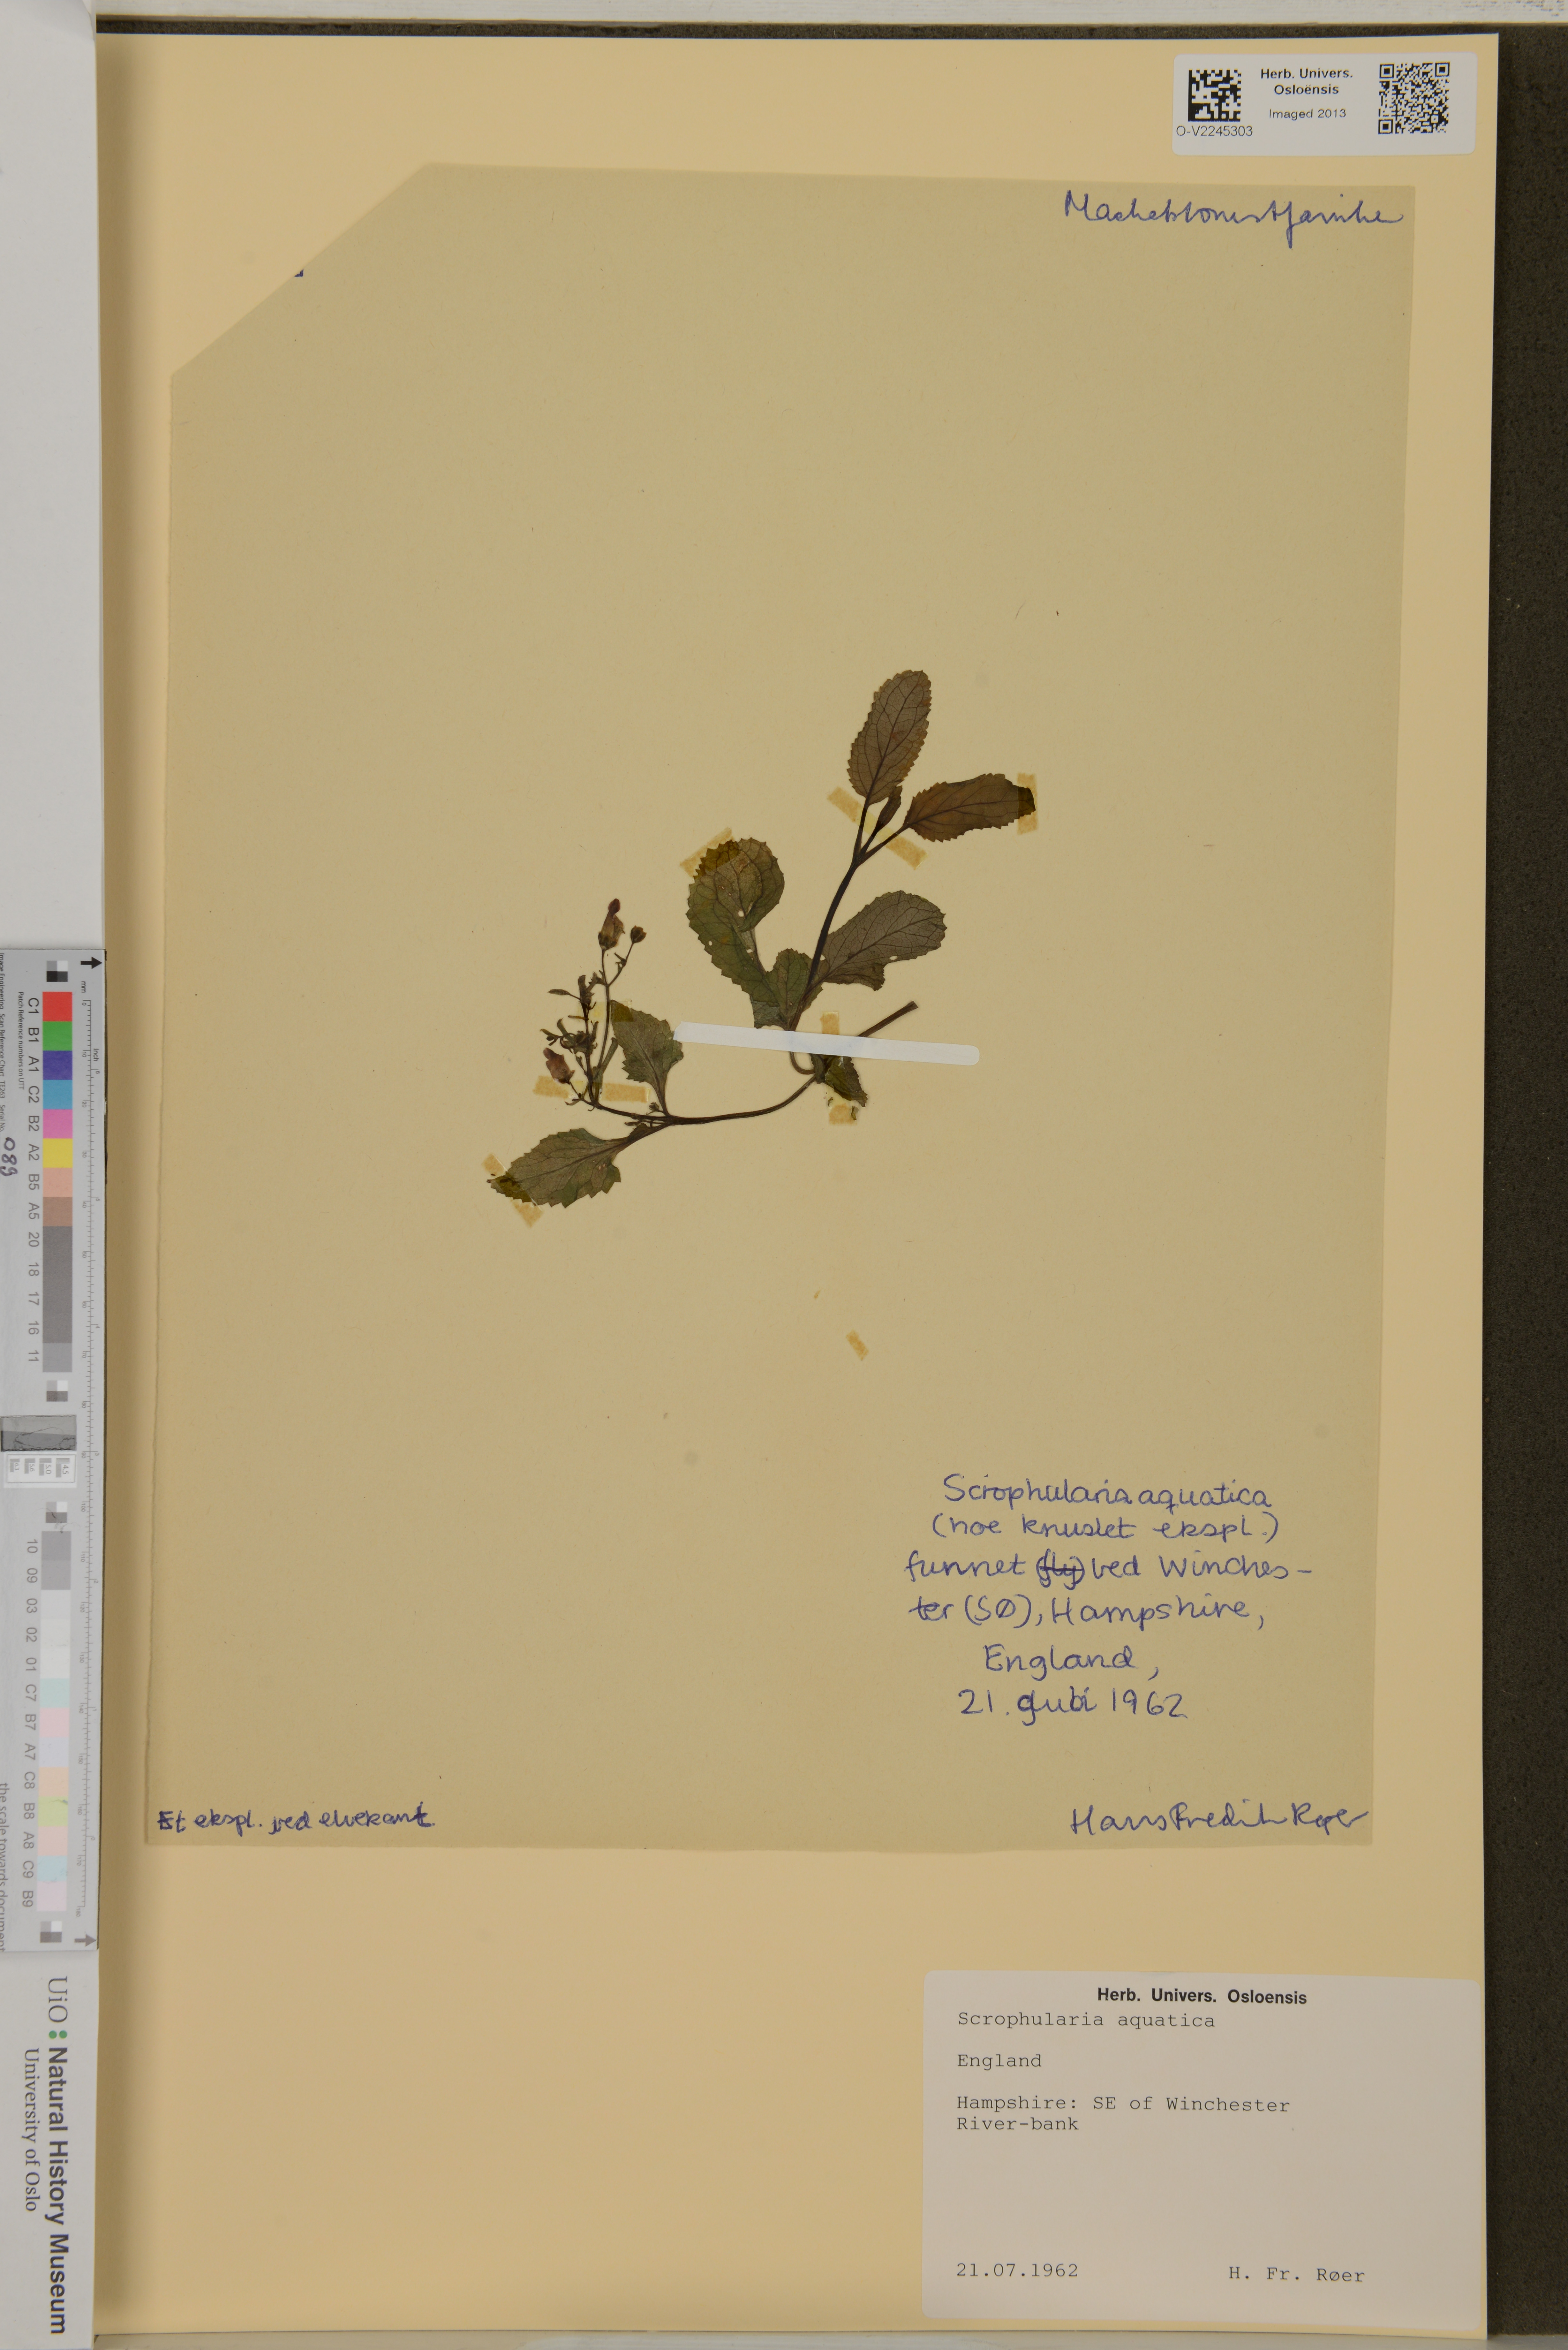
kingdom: Plantae
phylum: Tracheophyta
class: Magnoliopsida
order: Lamiales
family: Scrophulariaceae
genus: Scrophularia
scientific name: Scrophularia oblongifolia
